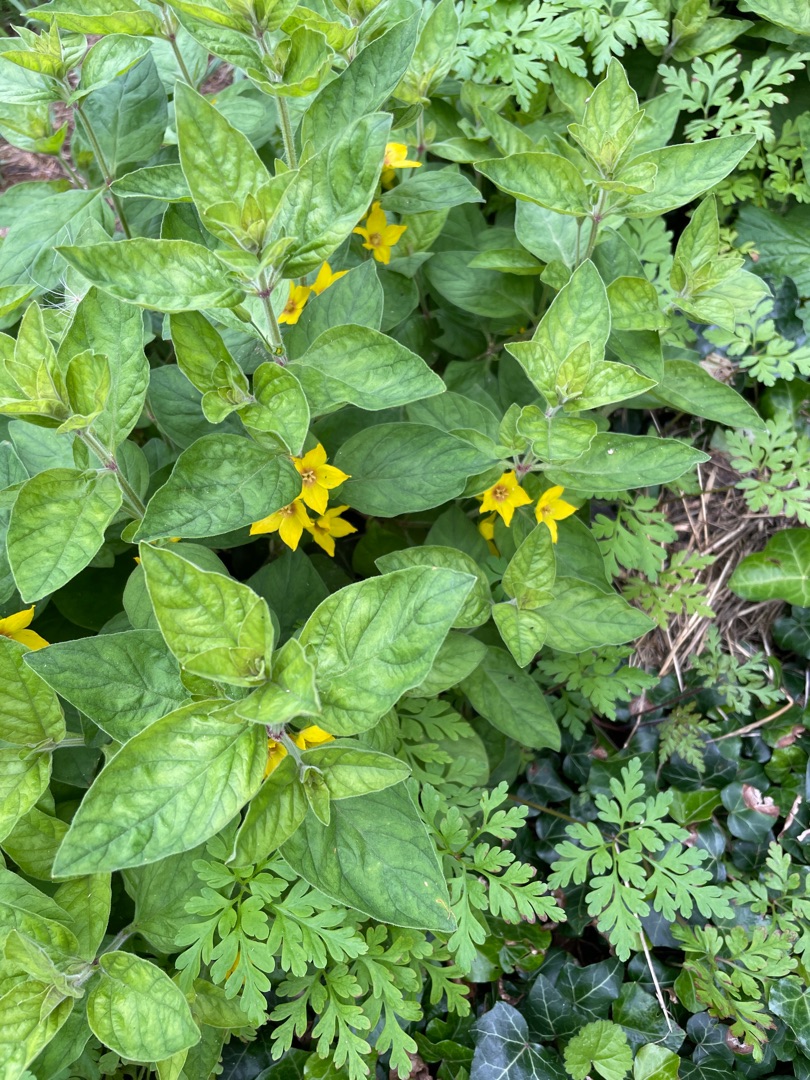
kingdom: Plantae
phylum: Tracheophyta
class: Magnoliopsida
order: Ericales
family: Primulaceae
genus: Lysimachia
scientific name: Lysimachia punctata
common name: Prikbladet fredløs
